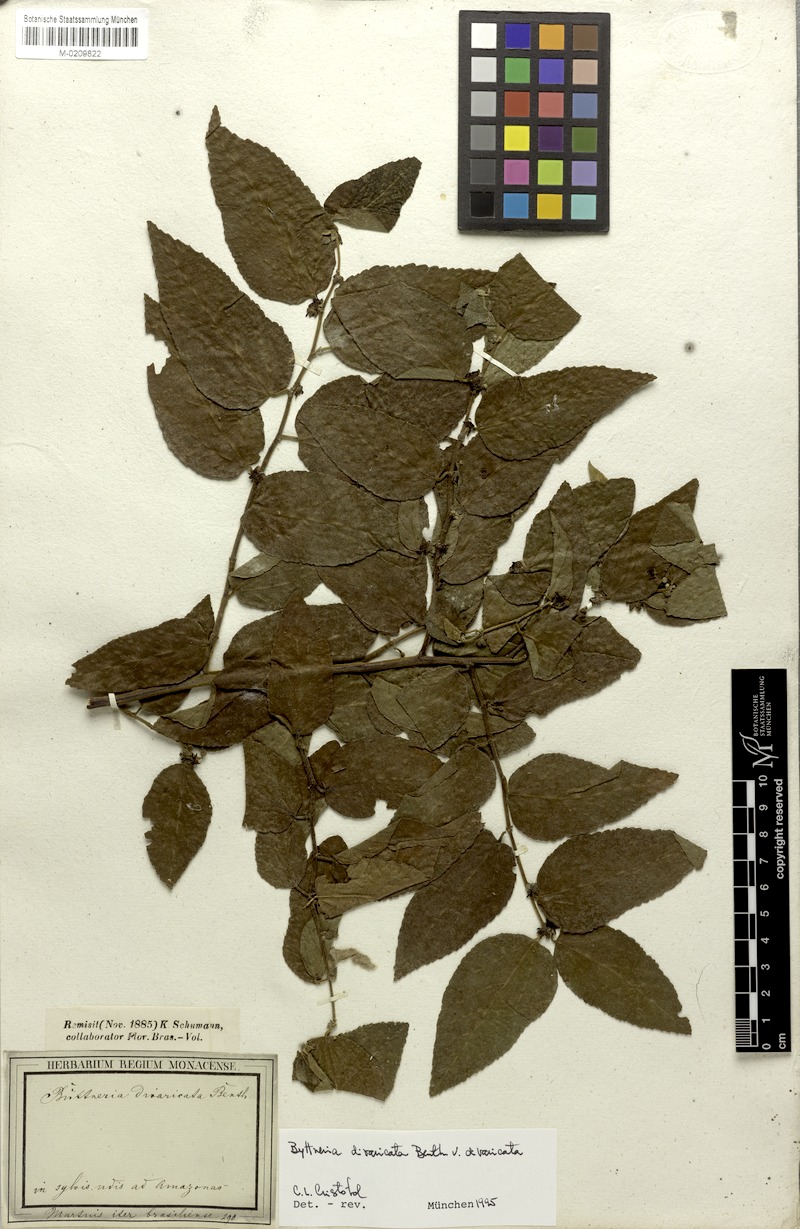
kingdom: Plantae
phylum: Tracheophyta
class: Magnoliopsida
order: Malvales
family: Malvaceae
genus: Byttneria
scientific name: Byttneria divaricata
